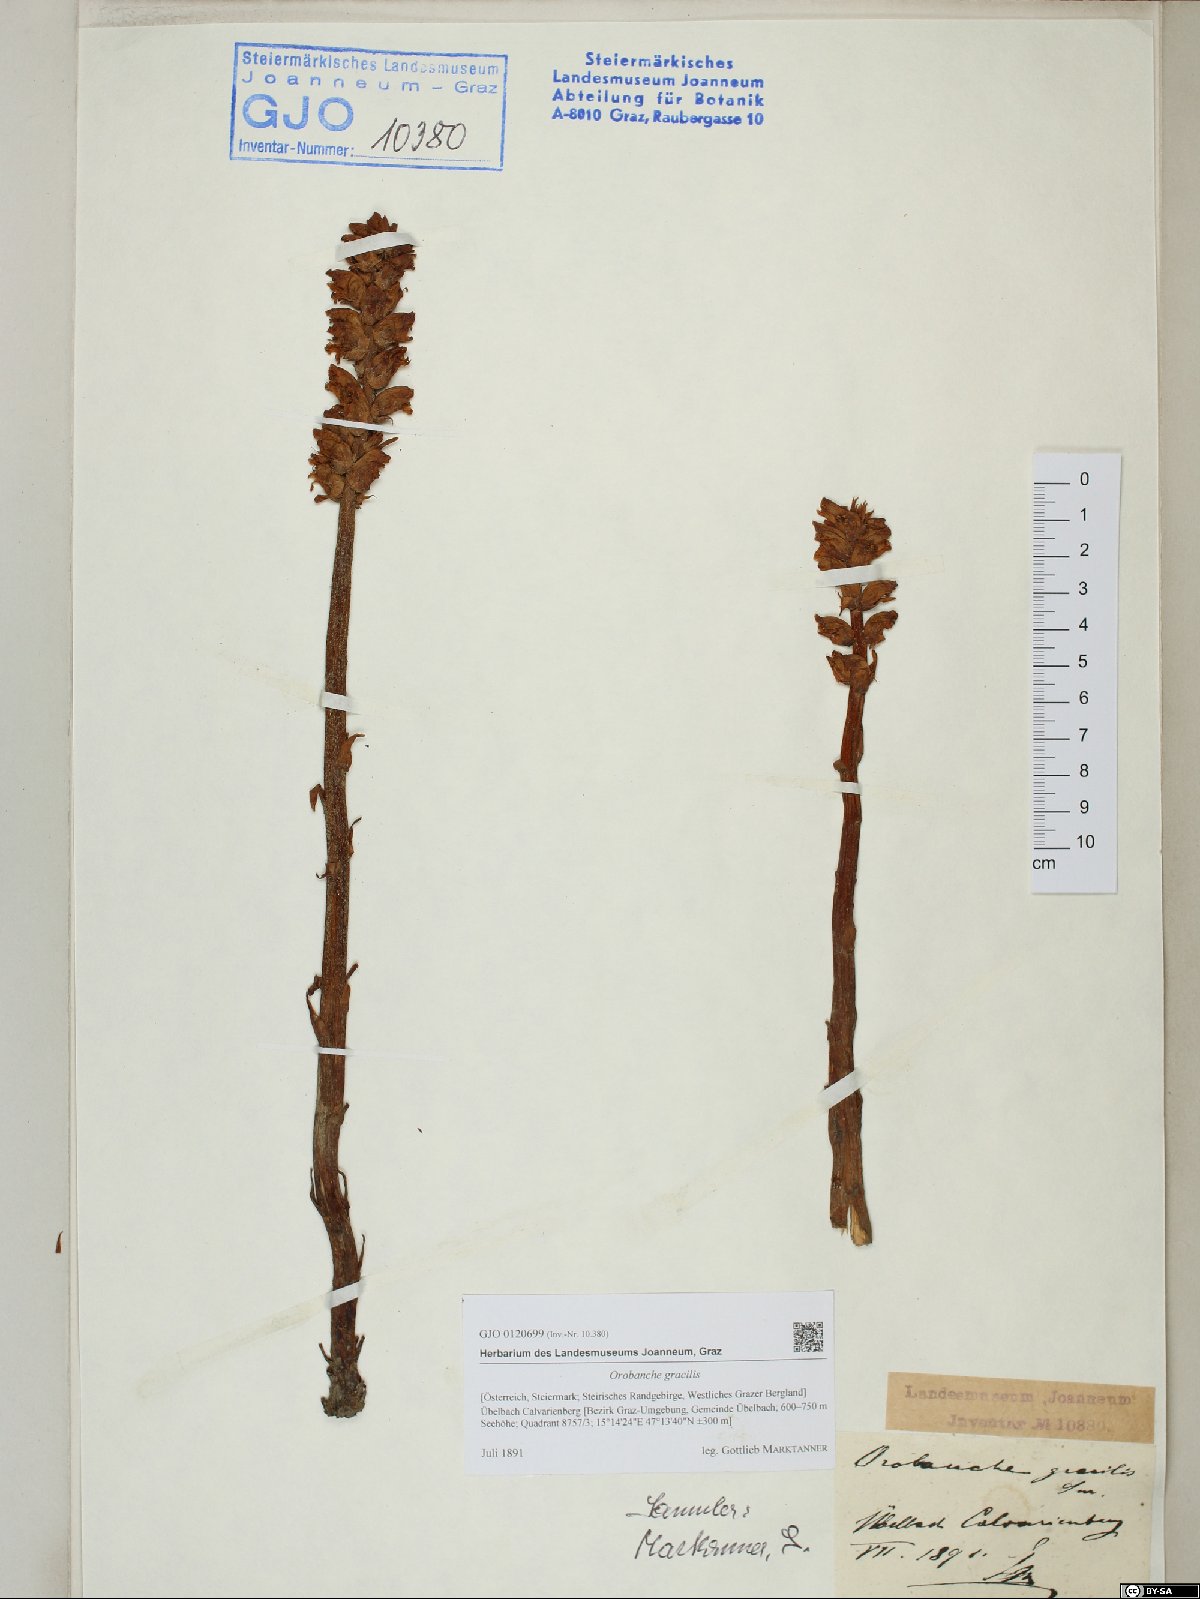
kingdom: Plantae
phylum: Tracheophyta
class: Magnoliopsida
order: Lamiales
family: Orobanchaceae
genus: Orobanche
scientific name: Orobanche gracilis
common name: Slender broomrape
